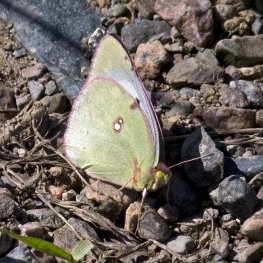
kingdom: Animalia
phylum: Arthropoda
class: Insecta
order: Lepidoptera
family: Pieridae
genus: Colias
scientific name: Colias eurytheme
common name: Orange Sulphur
